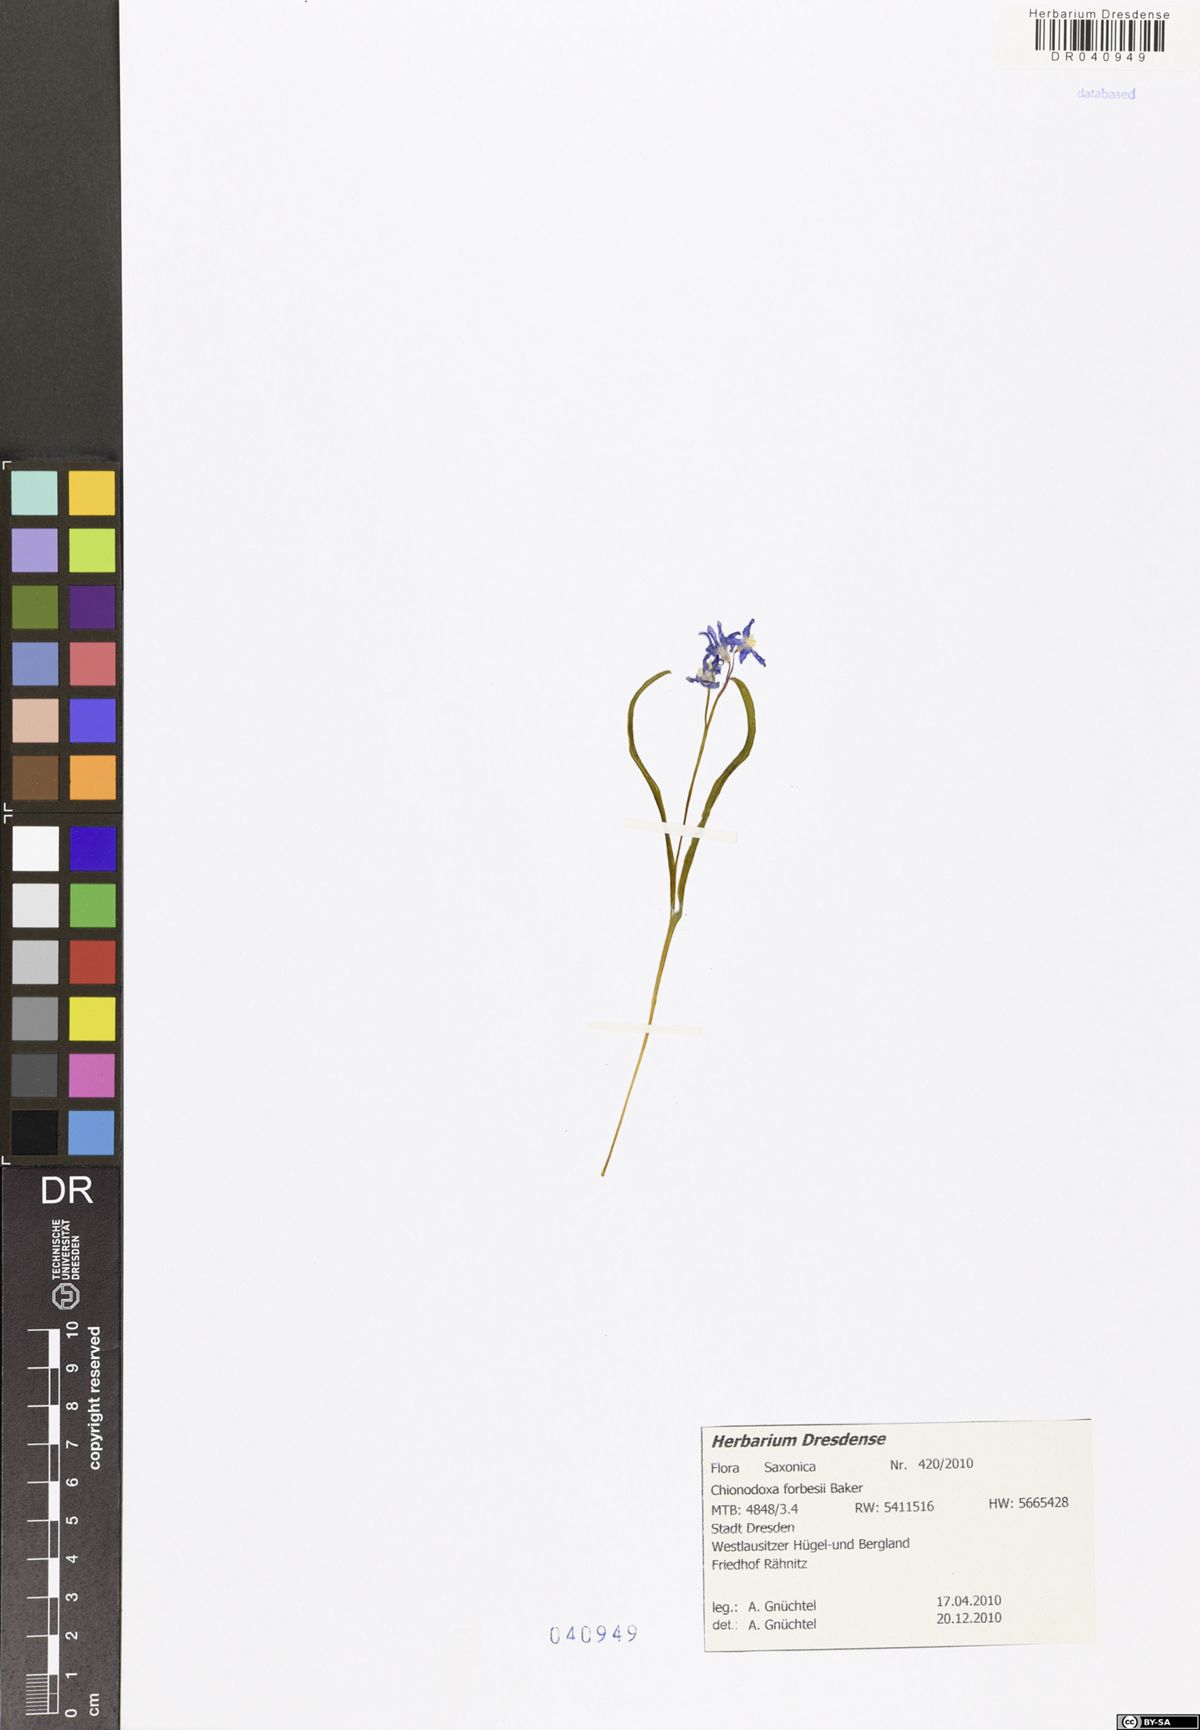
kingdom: Plantae
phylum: Tracheophyta
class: Liliopsida
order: Asparagales
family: Asparagaceae
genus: Scilla
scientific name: Scilla forbesii
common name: Glory-of-the-snow
